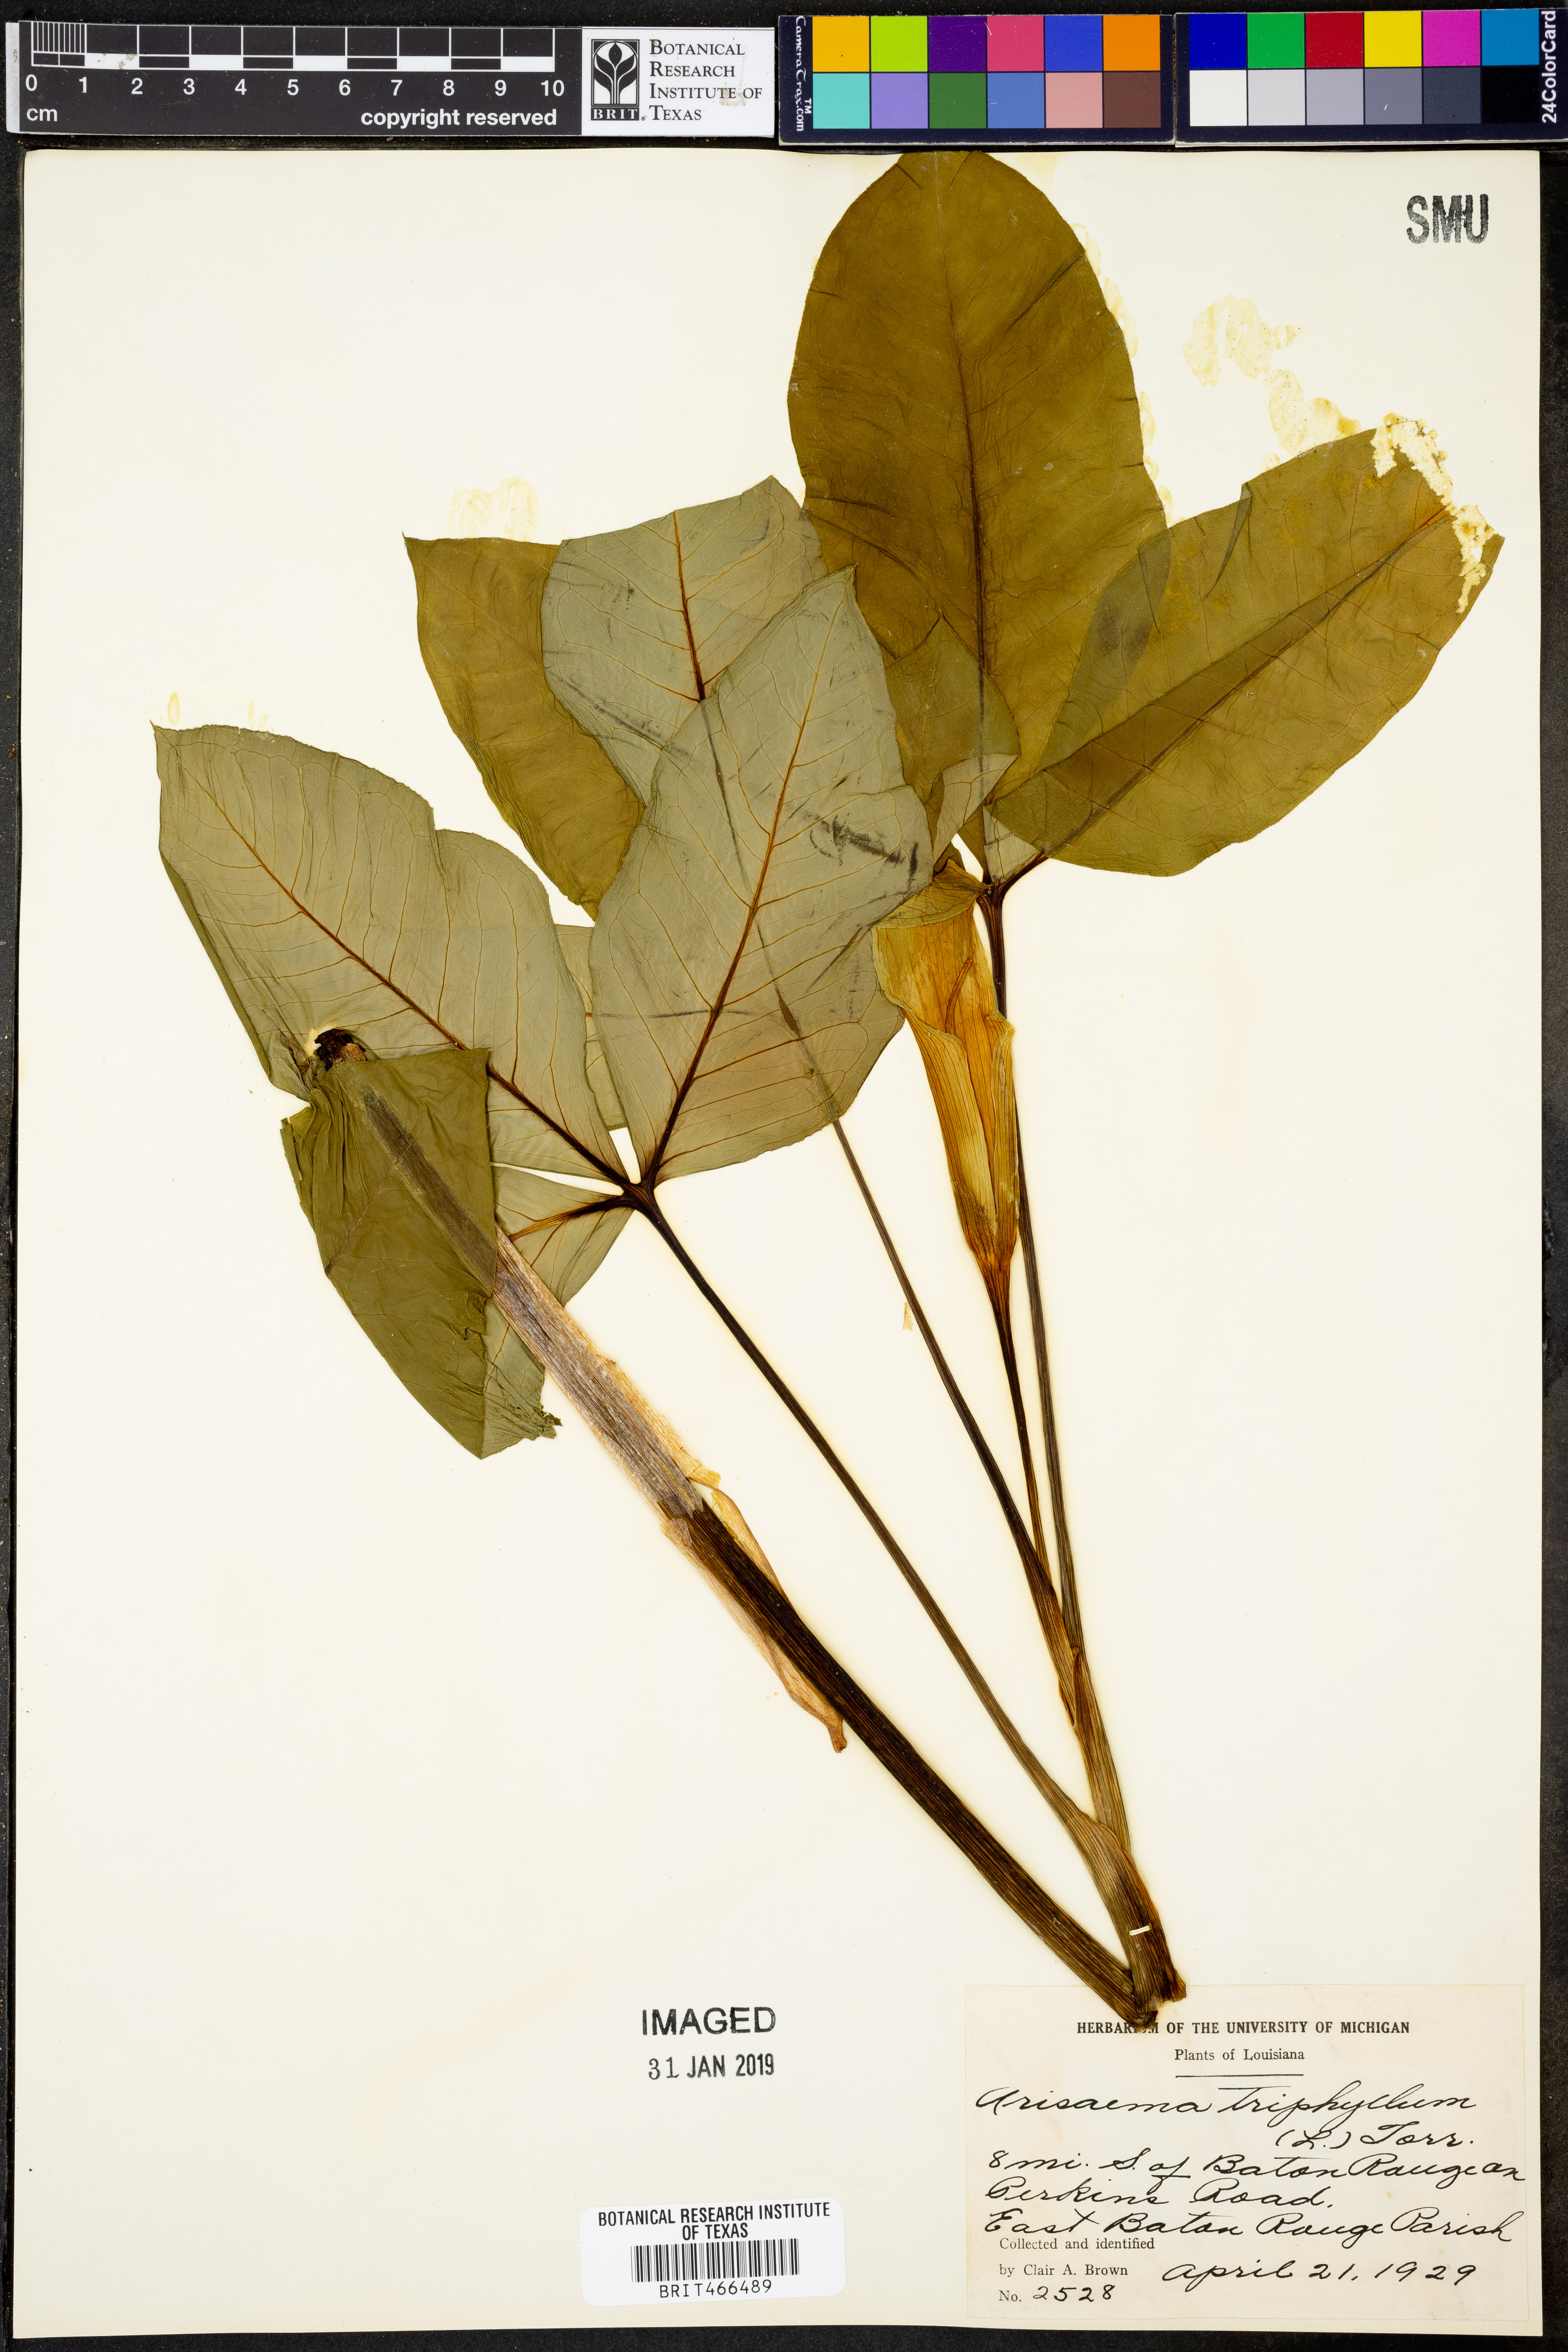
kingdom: Plantae
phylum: Tracheophyta
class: Liliopsida
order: Alismatales
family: Araceae
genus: Arisaema
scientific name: Arisaema triphyllum
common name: Jack-in-the-pulpit
